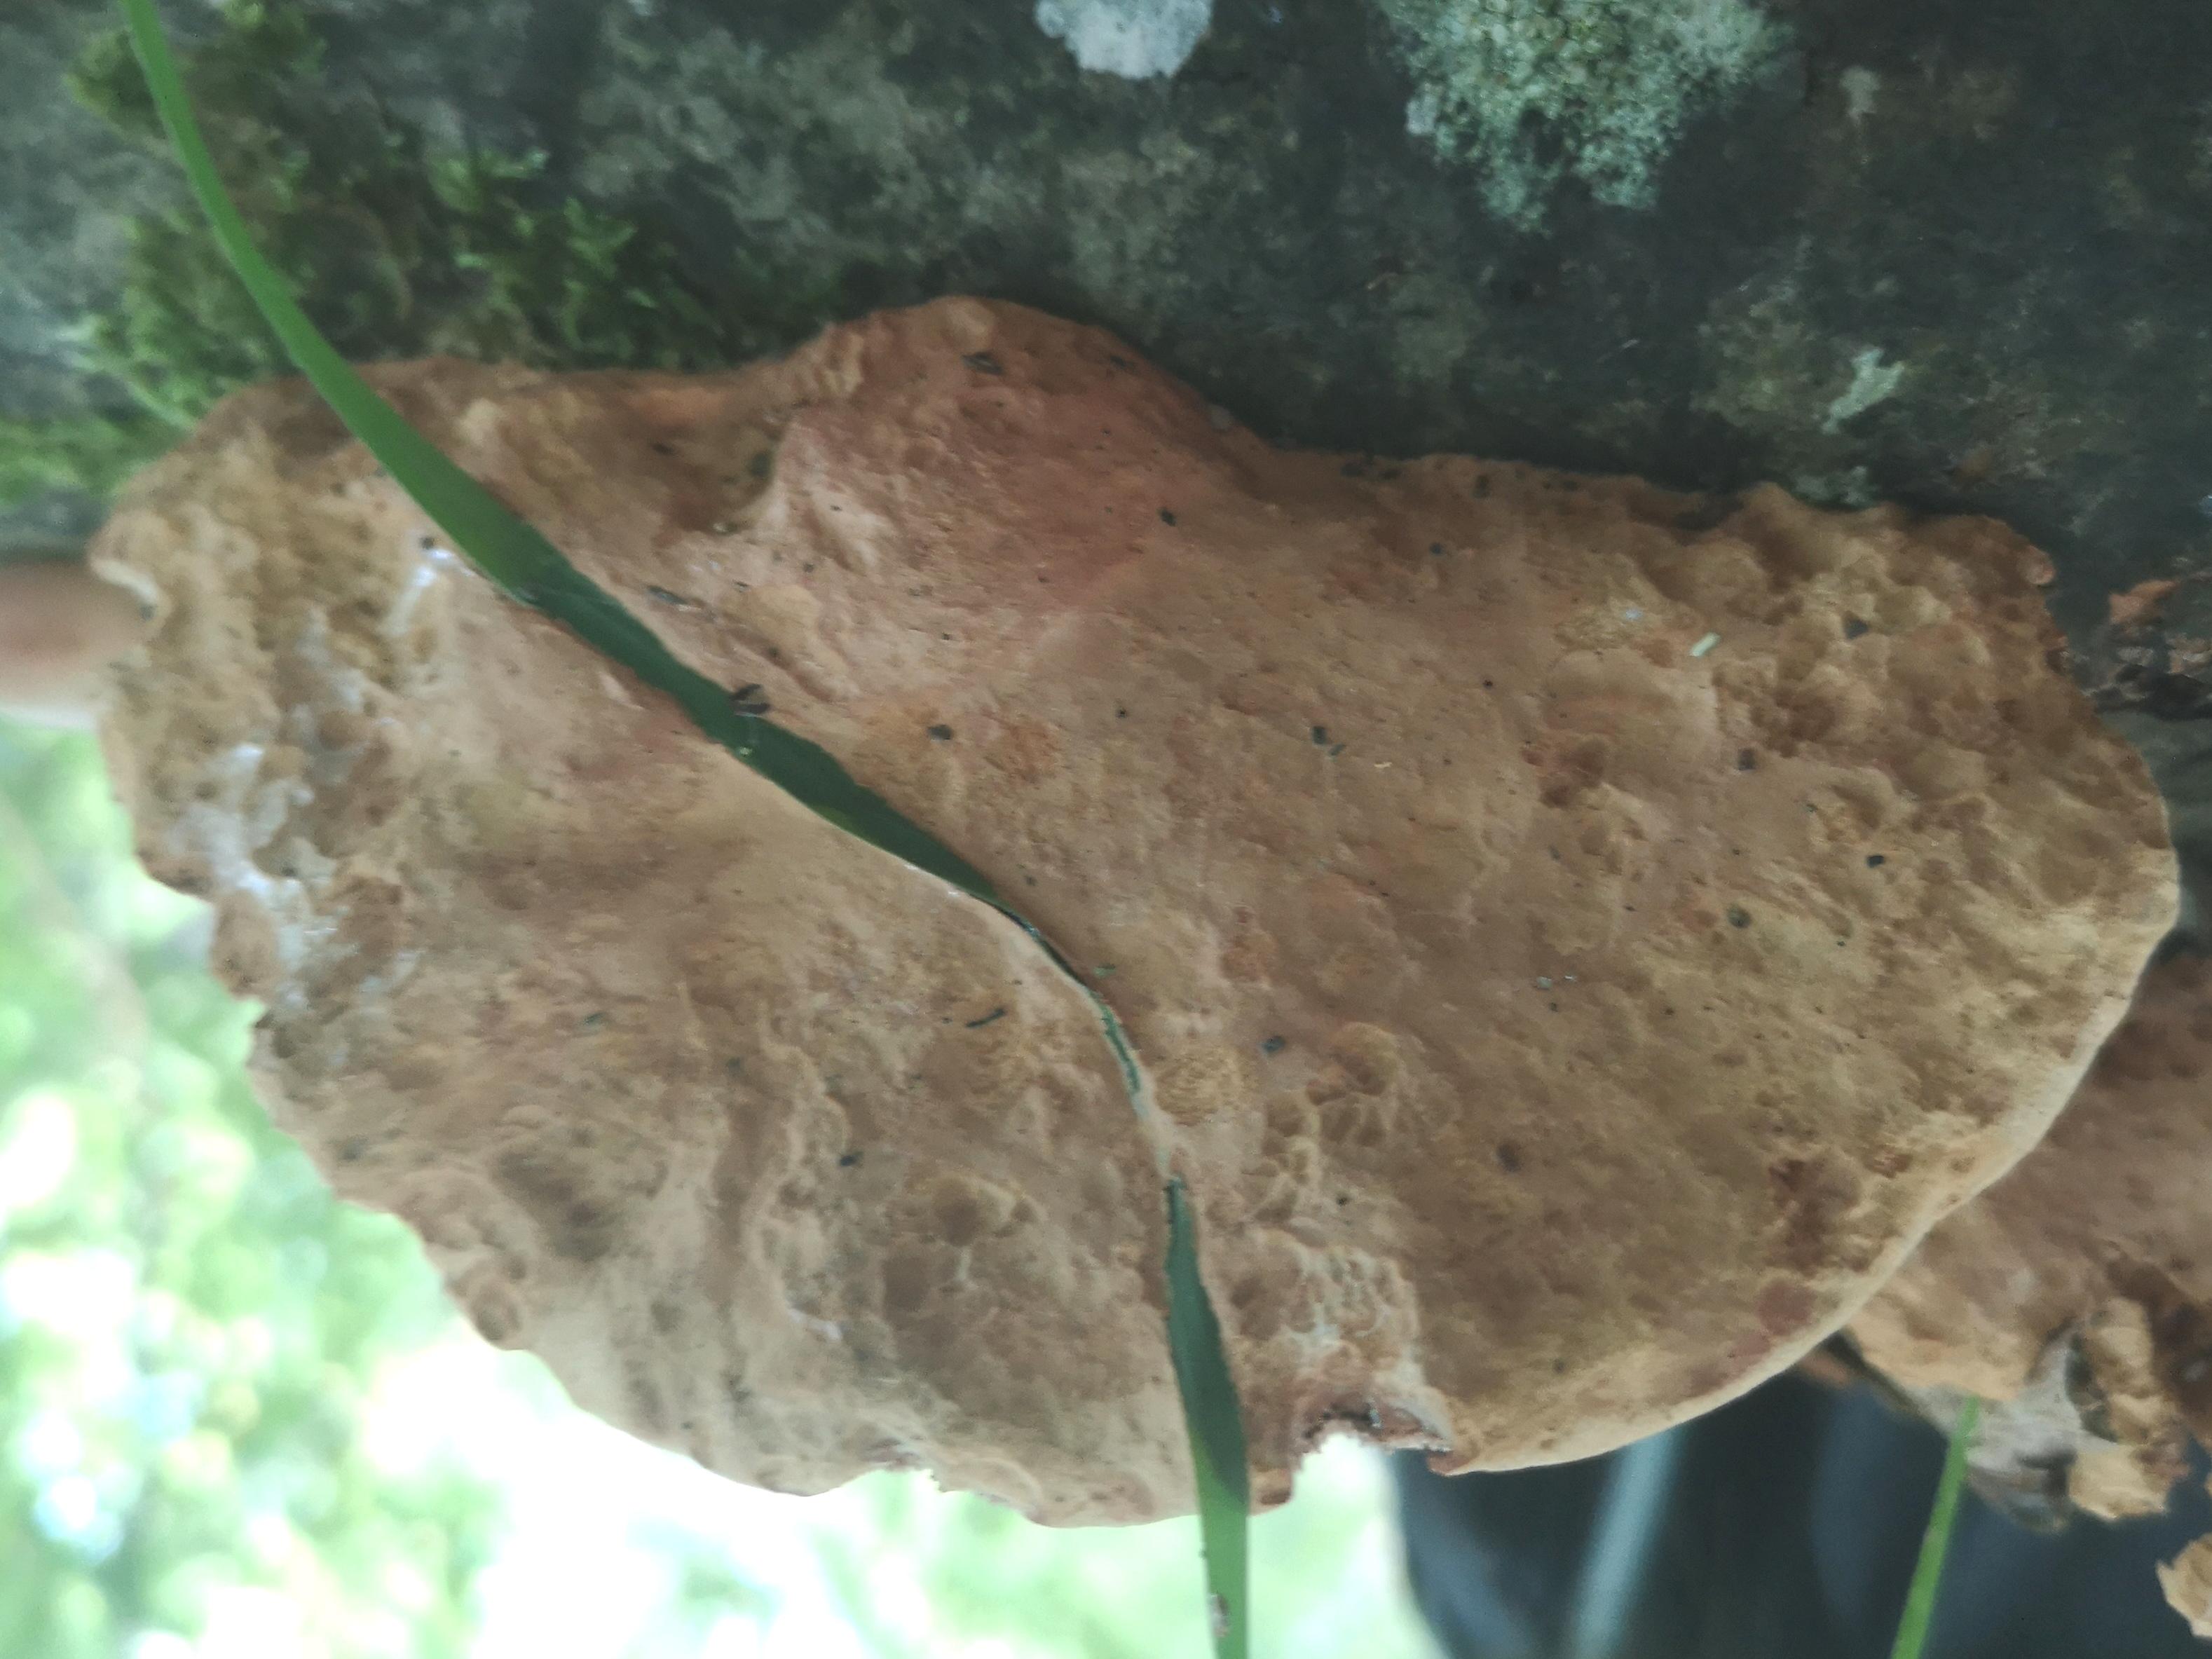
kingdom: Fungi
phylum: Basidiomycota
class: Agaricomycetes
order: Polyporales
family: Phanerochaetaceae
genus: Hapalopilus
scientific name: Hapalopilus rutilans
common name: rødlig okkerporesvamp
